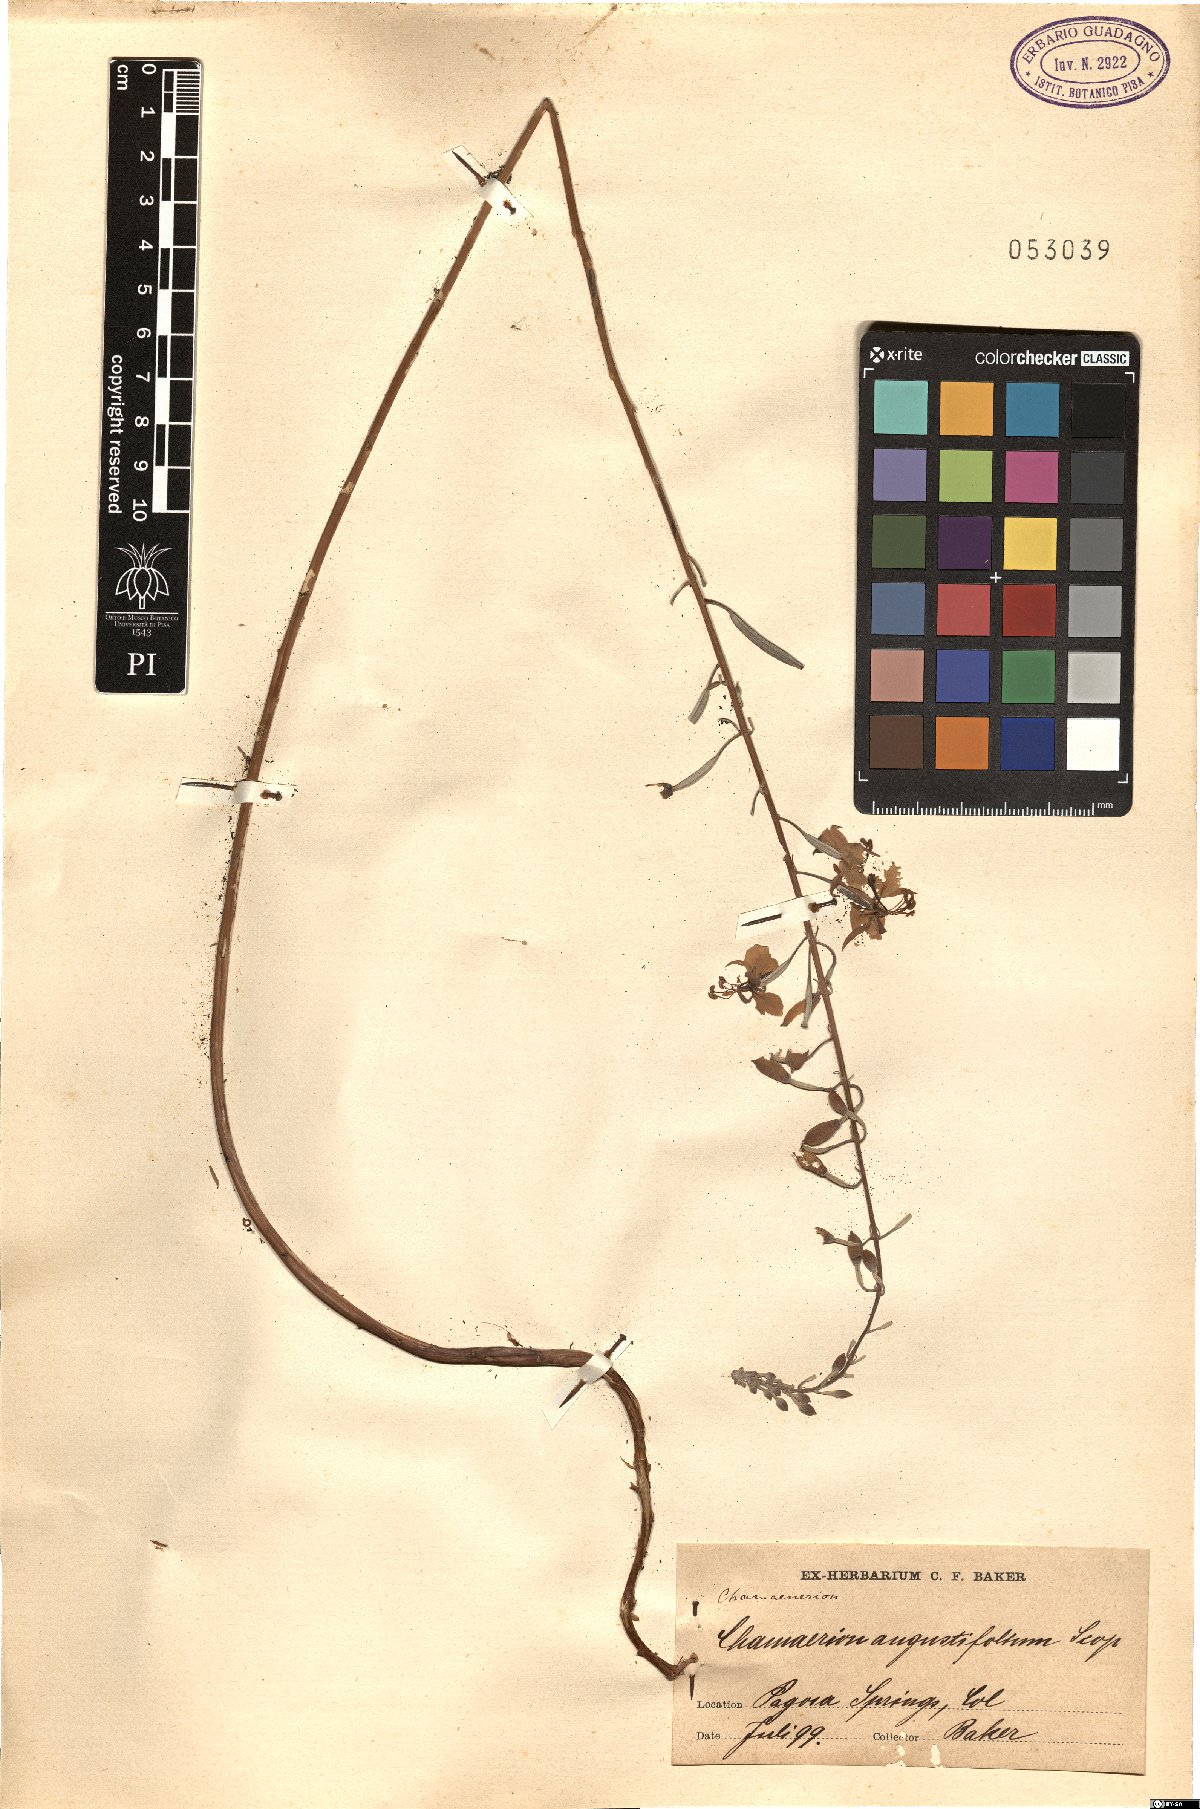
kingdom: Plantae
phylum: Tracheophyta
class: Magnoliopsida
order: Myrtales
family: Onagraceae
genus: Chamaenerion
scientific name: Chamaenerion angustifolium
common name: Fireweed
